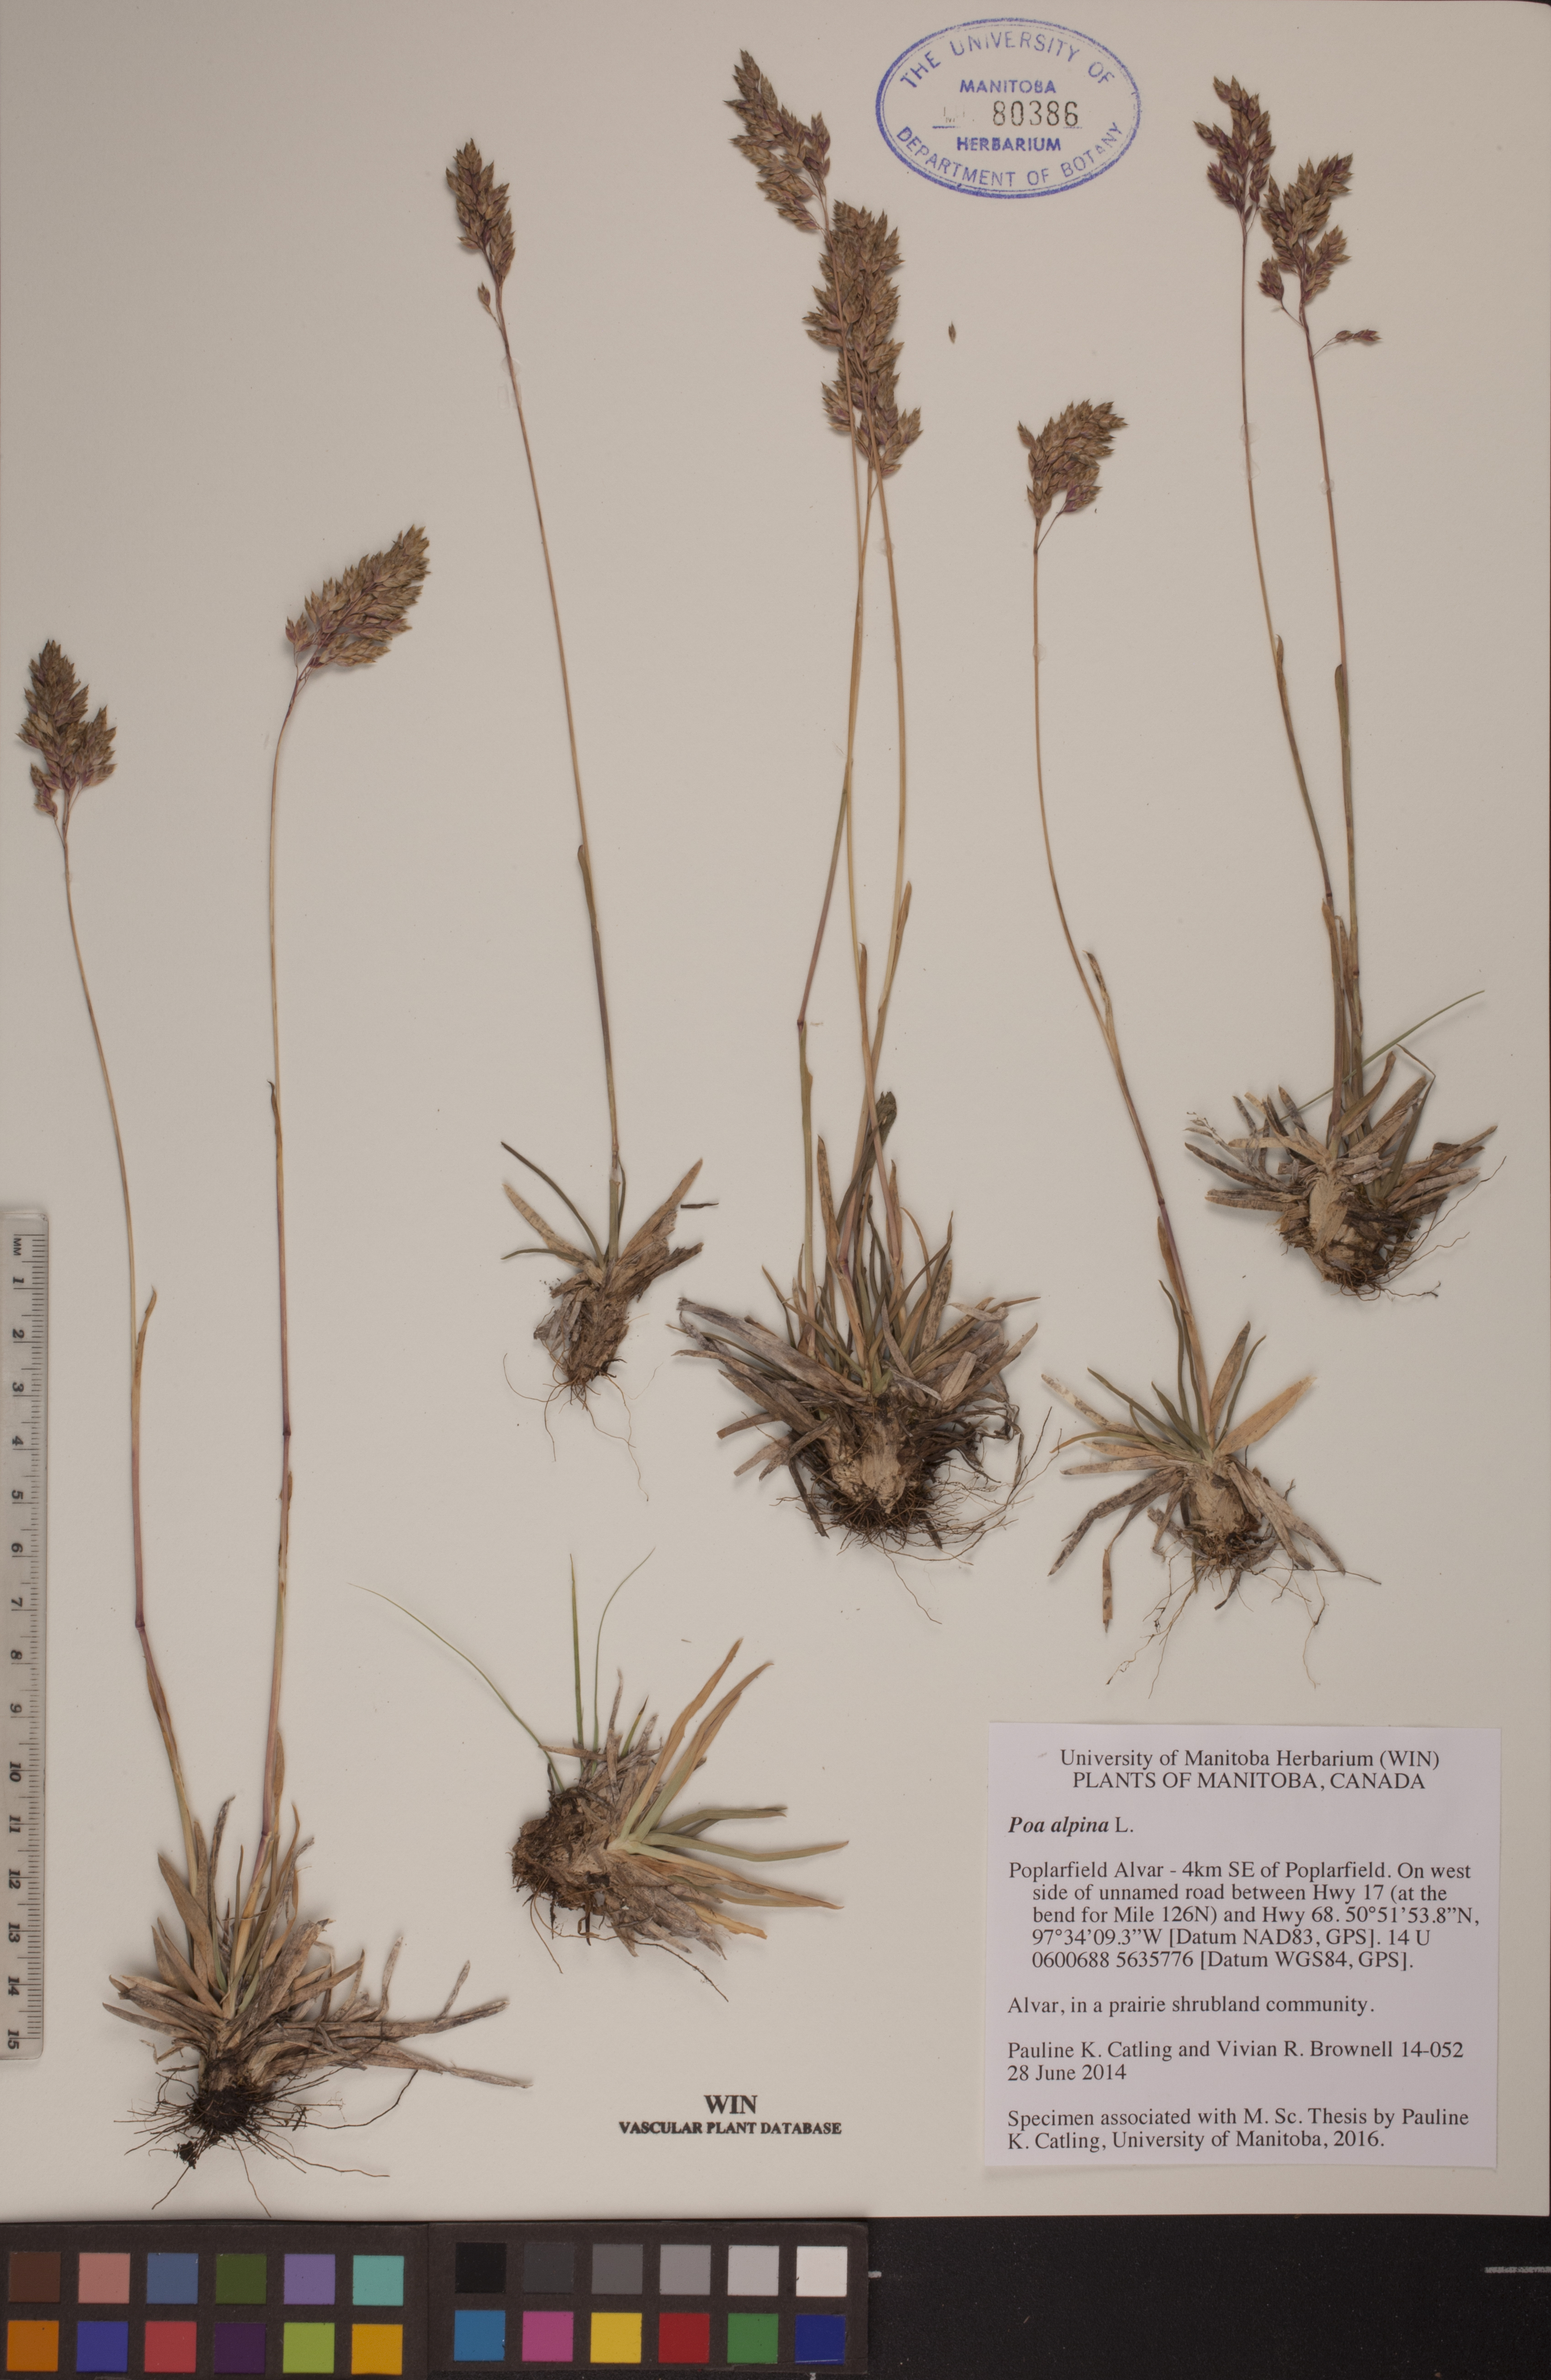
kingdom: Plantae
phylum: Tracheophyta
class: Liliopsida
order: Poales
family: Poaceae
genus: Poa
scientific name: Poa alpina
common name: Alpine bluegrass
